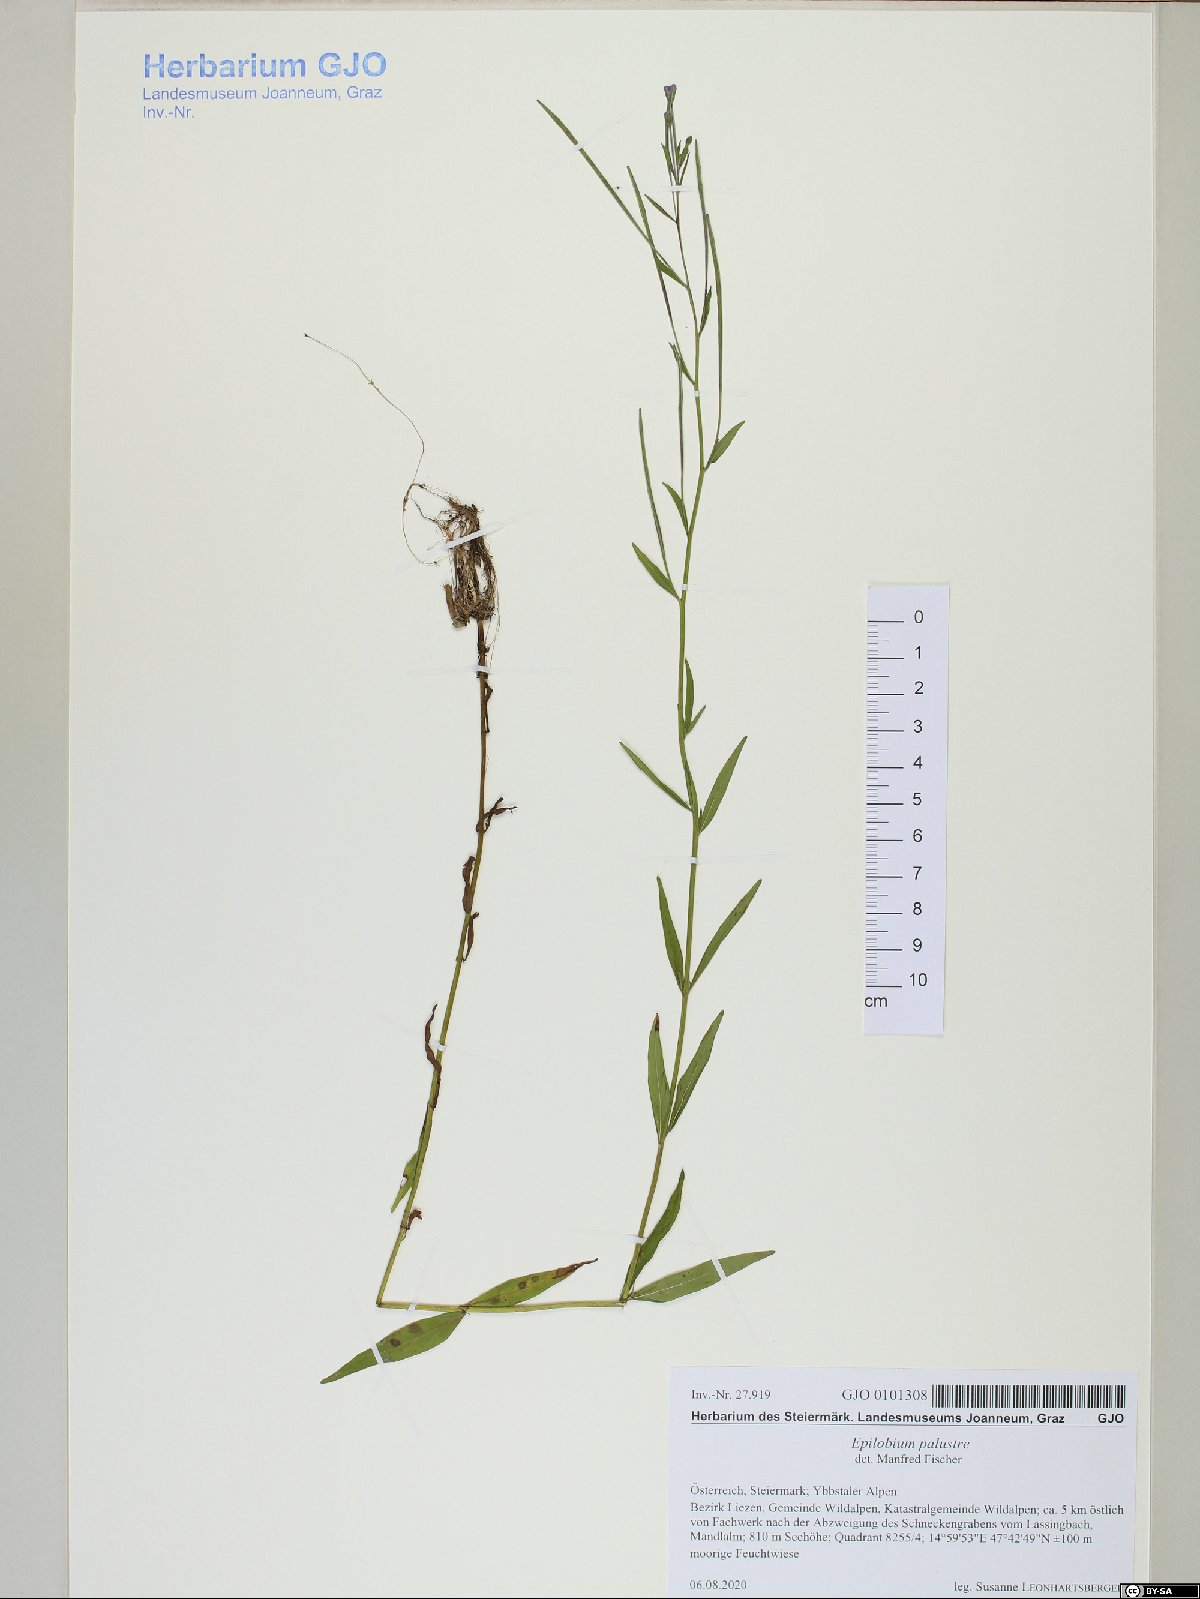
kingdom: Plantae
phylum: Tracheophyta
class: Magnoliopsida
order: Myrtales
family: Onagraceae
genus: Epilobium
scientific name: Epilobium palustre
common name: Marsh willowherb
